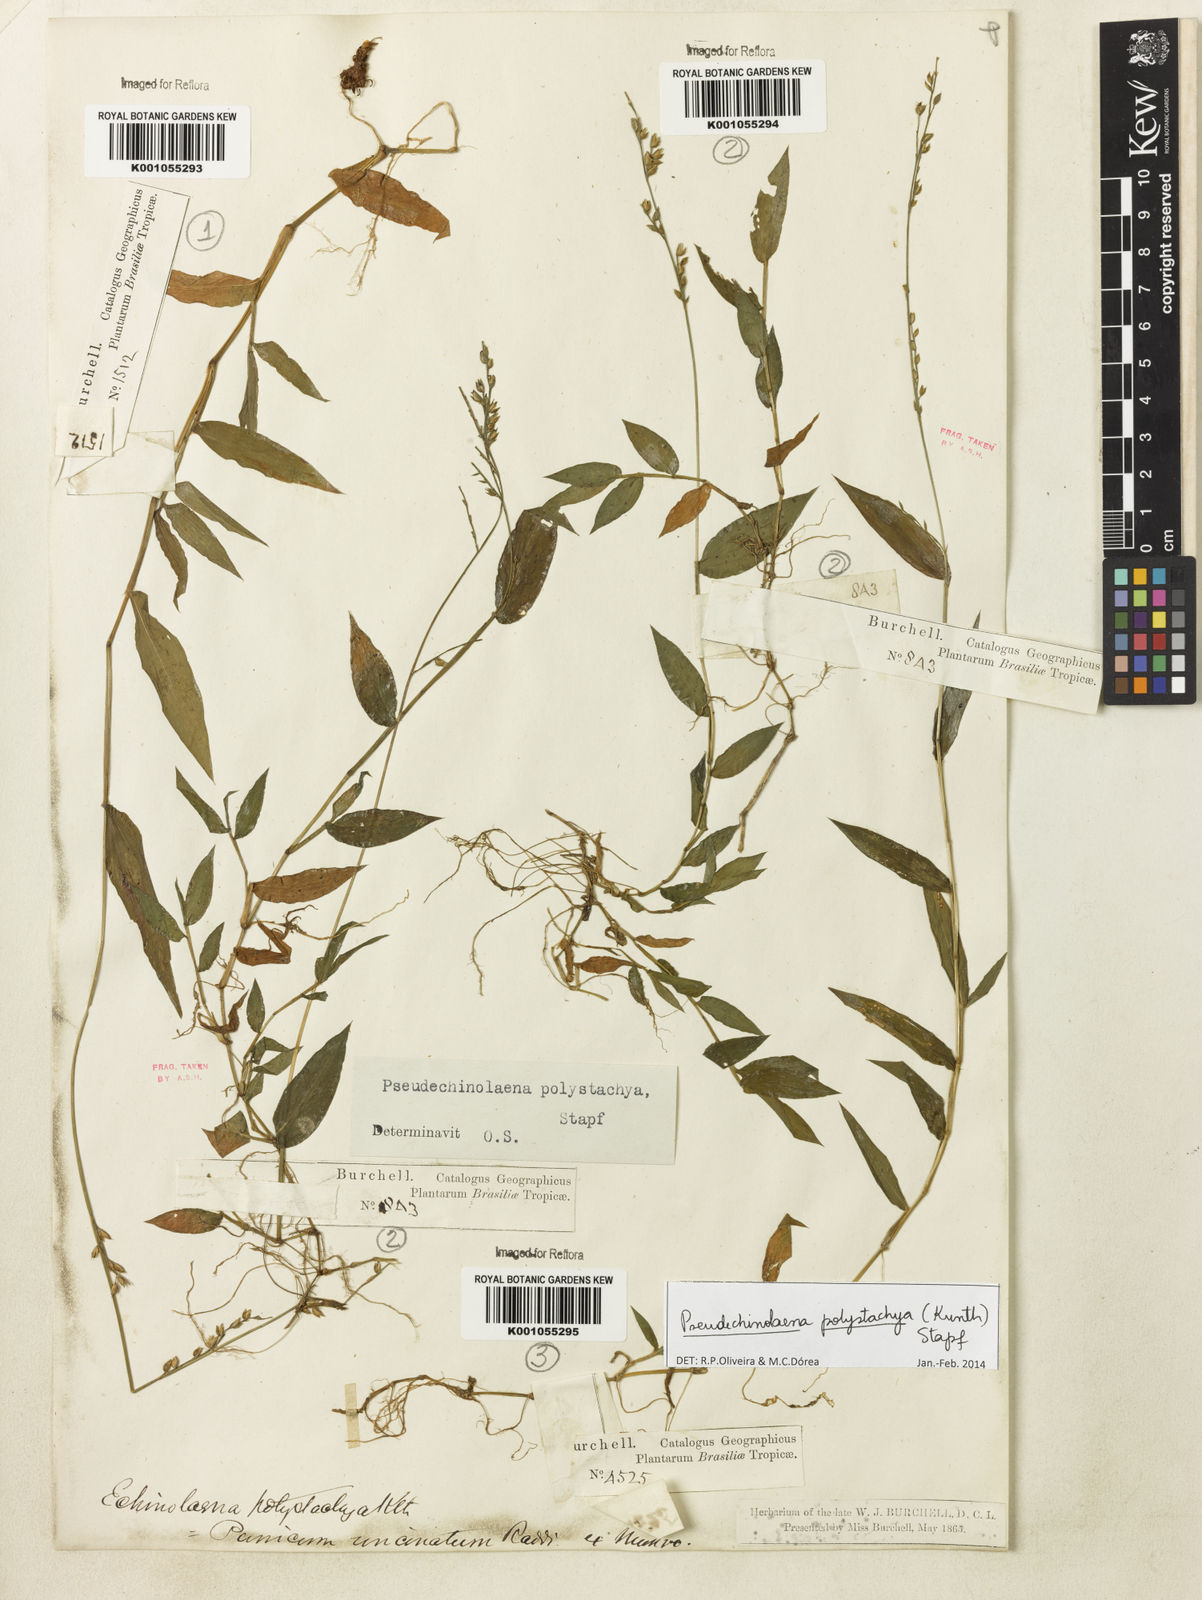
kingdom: Plantae
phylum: Tracheophyta
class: Liliopsida
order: Poales
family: Poaceae
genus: Pseudechinolaena
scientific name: Pseudechinolaena polystachya
